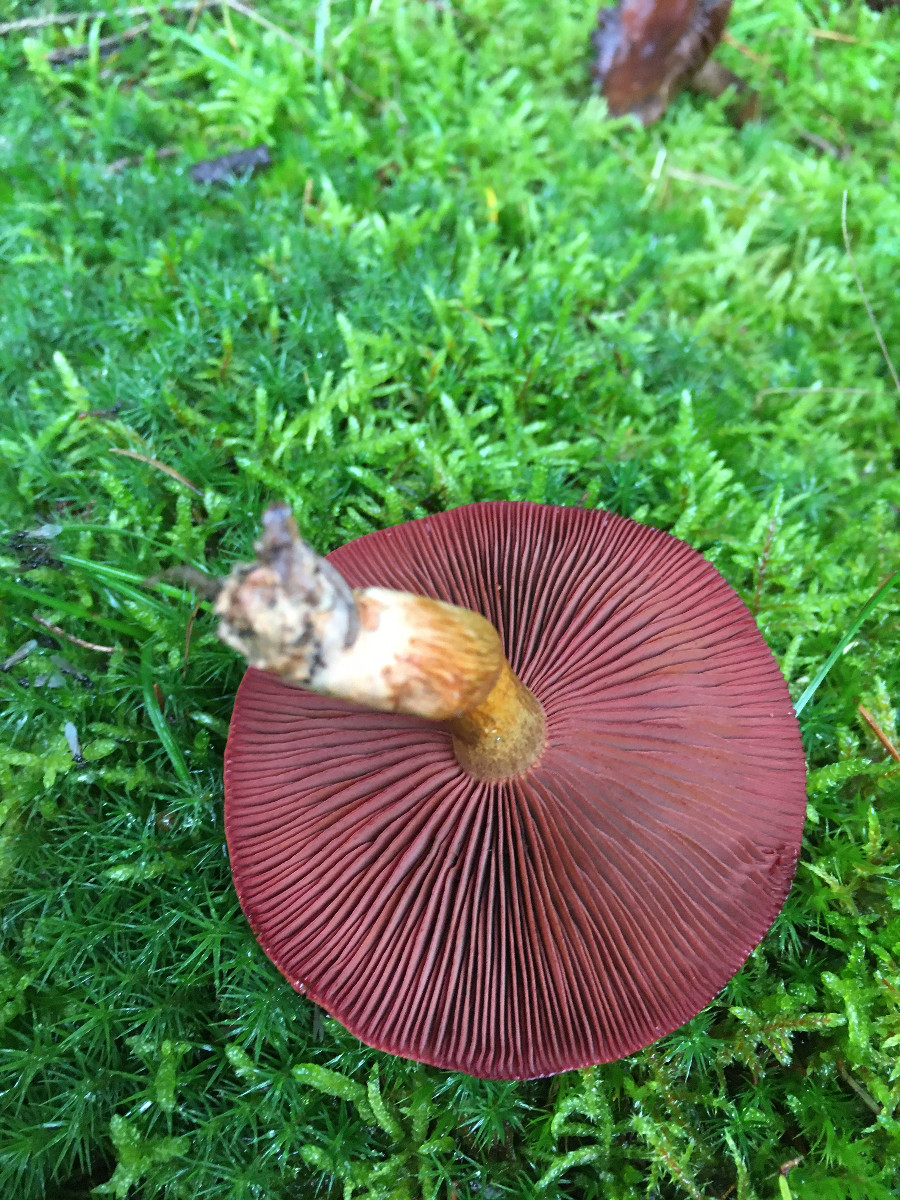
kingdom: Fungi
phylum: Basidiomycota
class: Agaricomycetes
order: Agaricales
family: Cortinariaceae
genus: Cortinarius
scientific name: Cortinarius
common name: cinnoberbladet slørhat
